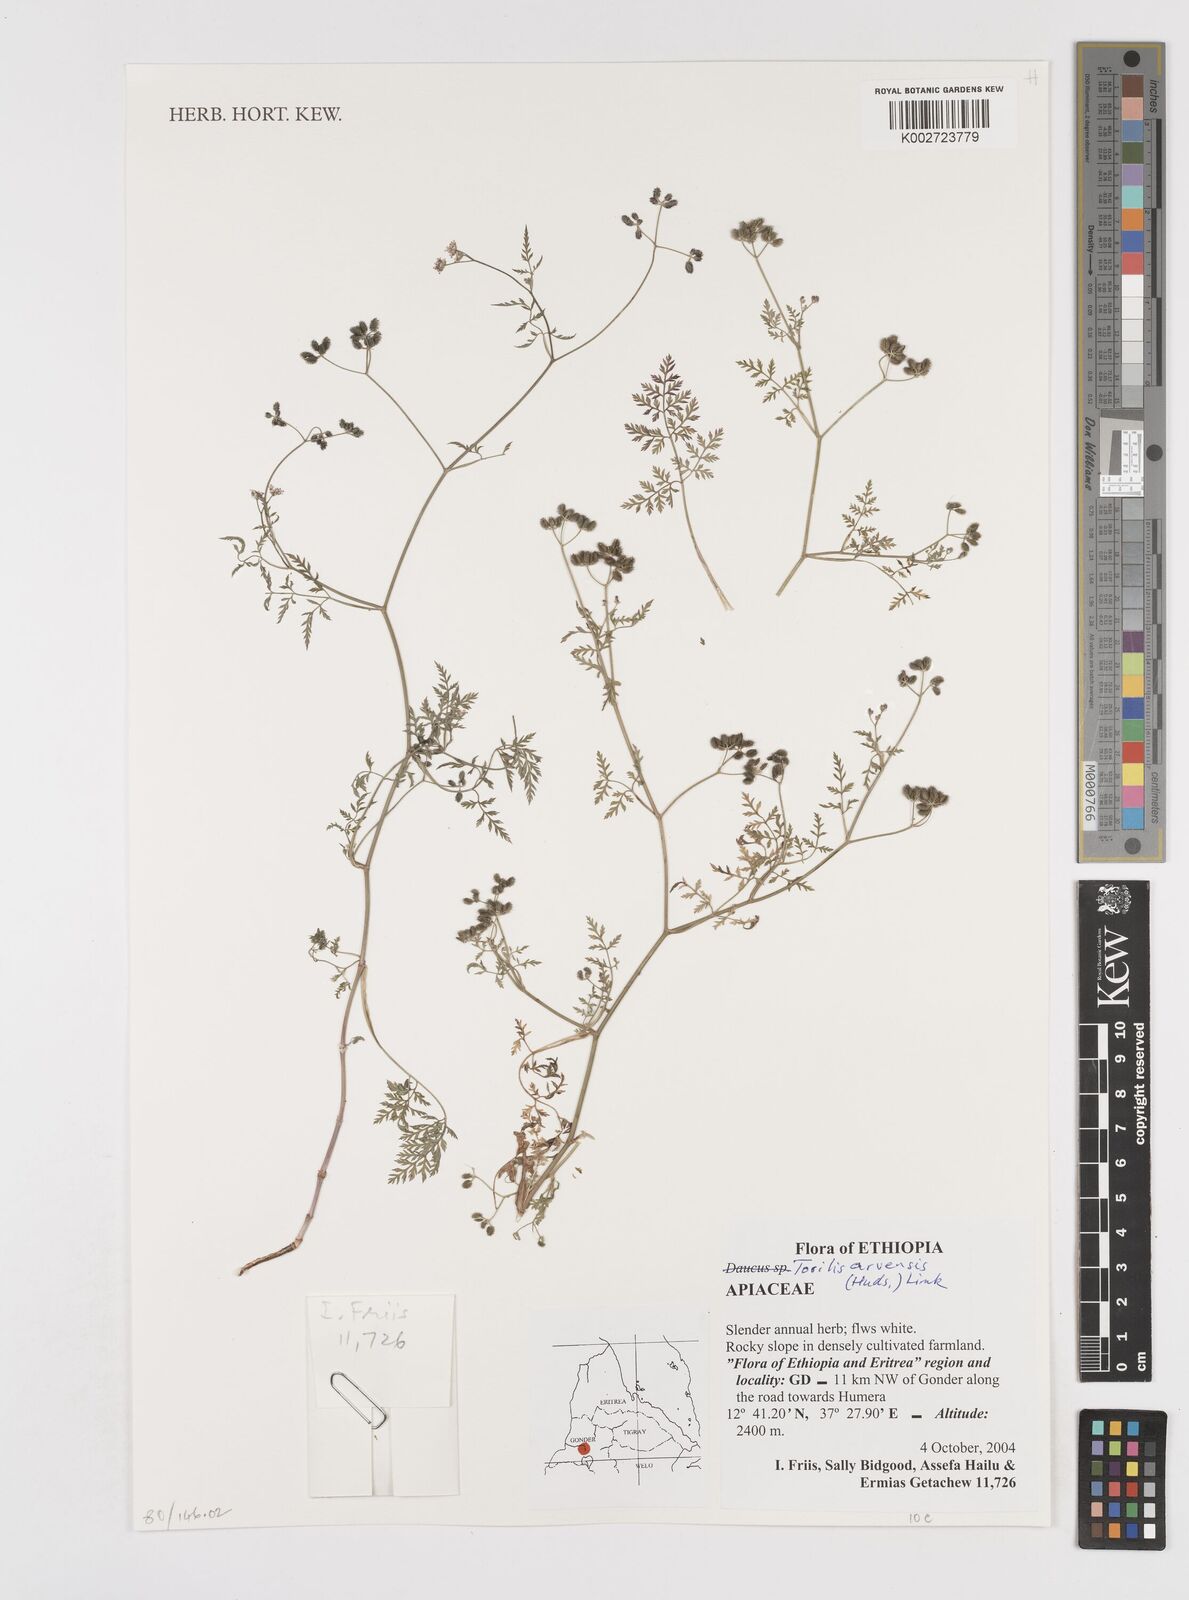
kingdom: Plantae
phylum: Tracheophyta
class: Magnoliopsida
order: Apiales
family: Apiaceae
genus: Torilis
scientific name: Torilis arvensis
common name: Spreading hedge-parsley
